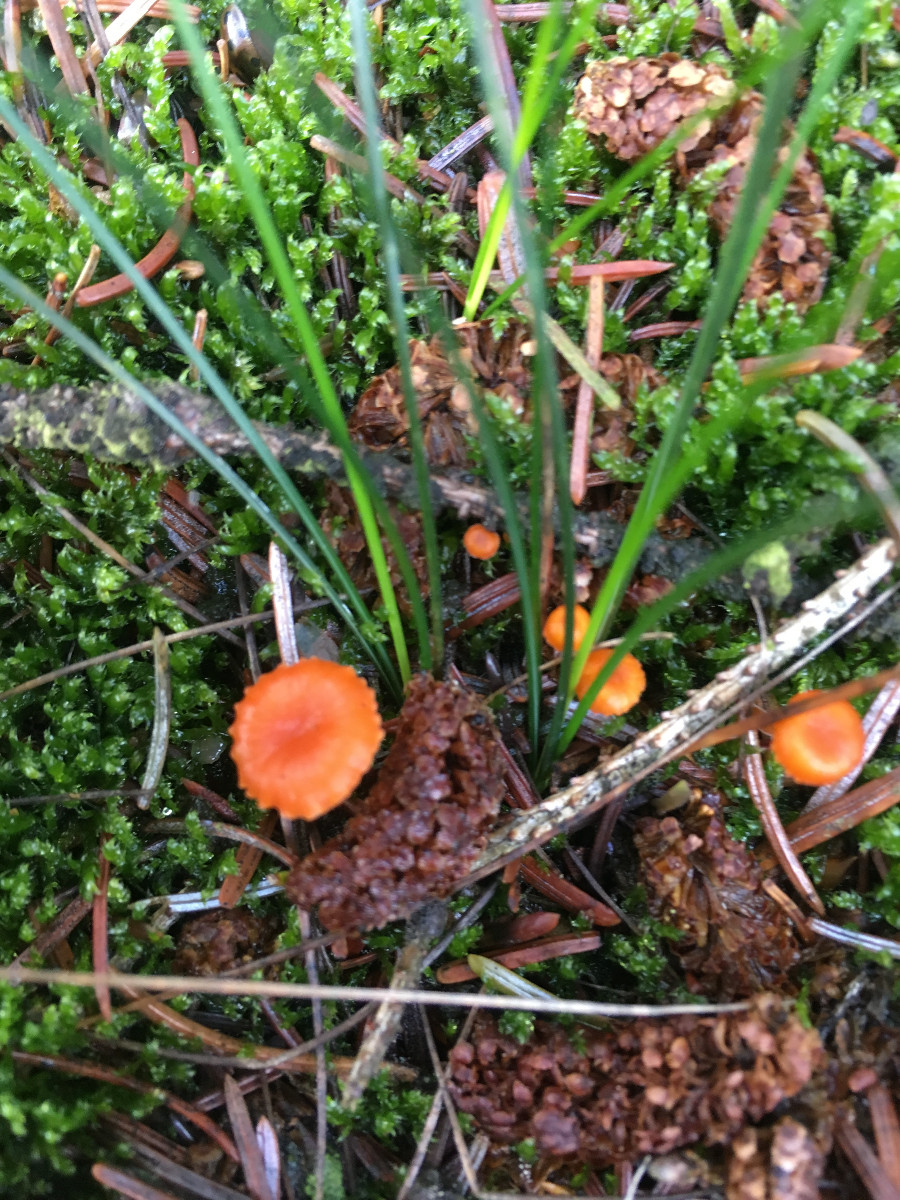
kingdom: Fungi
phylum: Basidiomycota
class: Agaricomycetes
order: Hymenochaetales
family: Rickenellaceae
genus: Rickenella
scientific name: Rickenella fibula
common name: orange mosnavlehat
